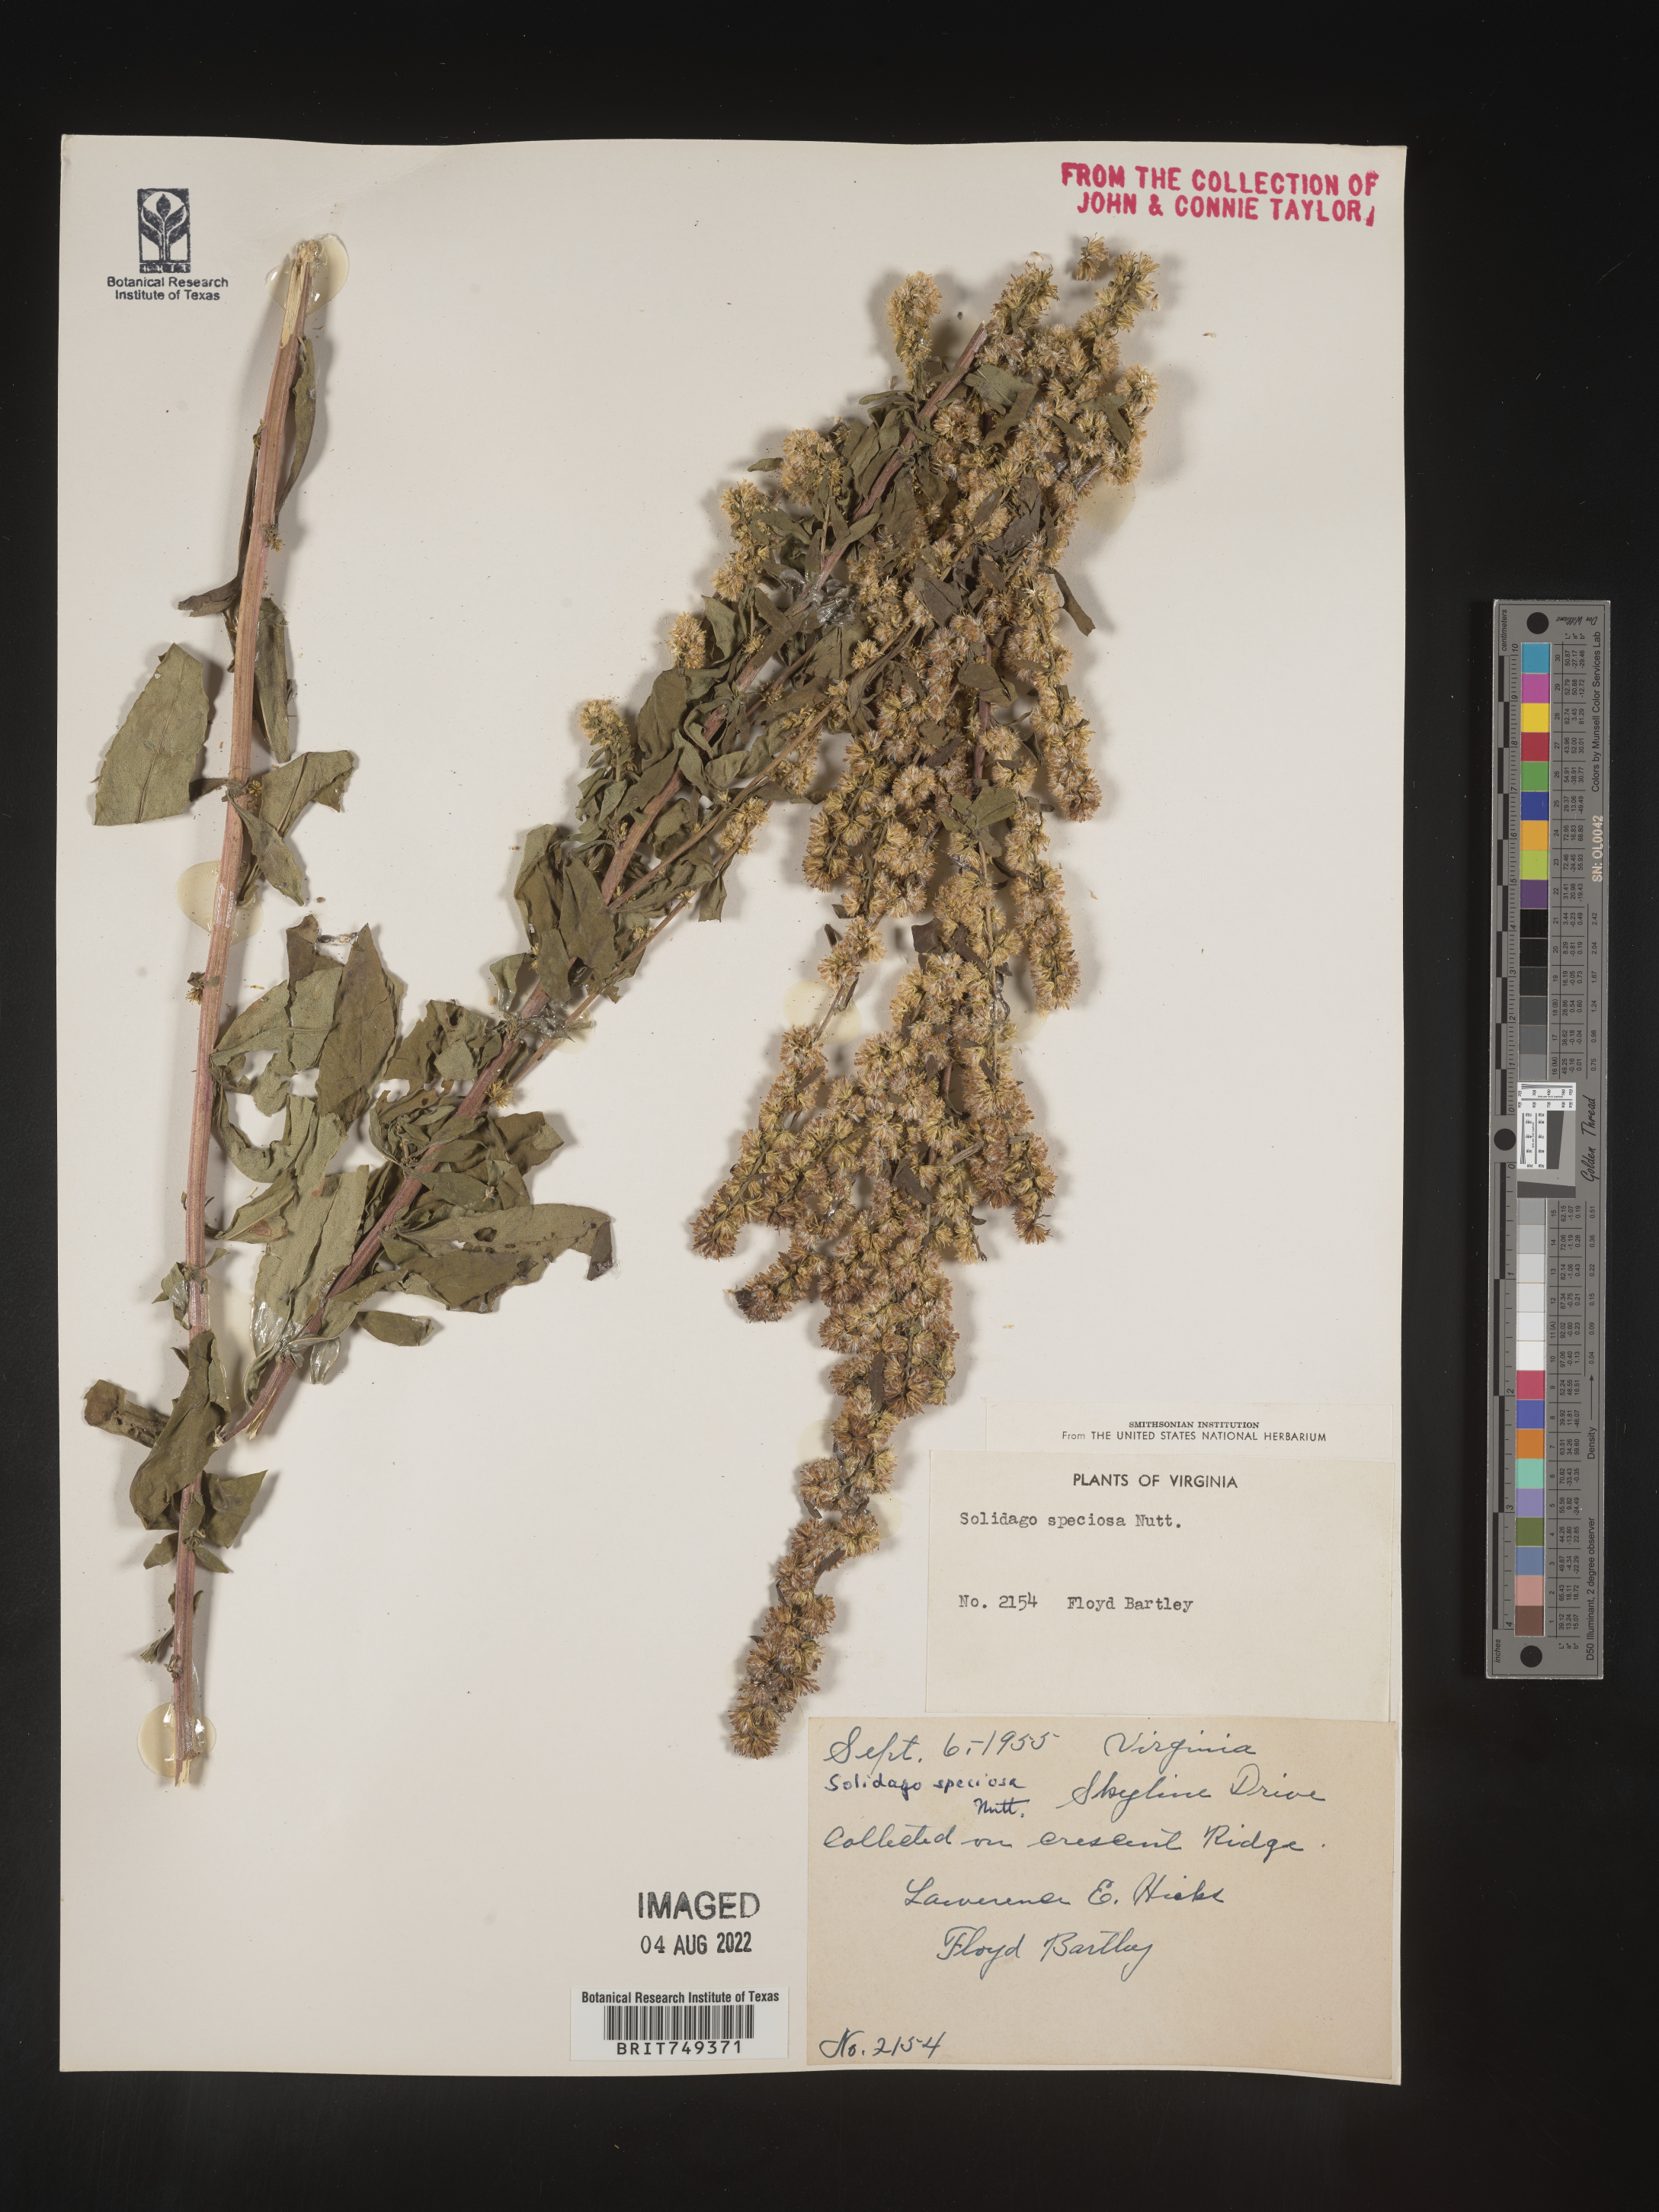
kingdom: Plantae
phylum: Tracheophyta
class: Magnoliopsida
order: Asterales
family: Asteraceae
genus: Solidago
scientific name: Solidago speciosa
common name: Showy goldenrod
